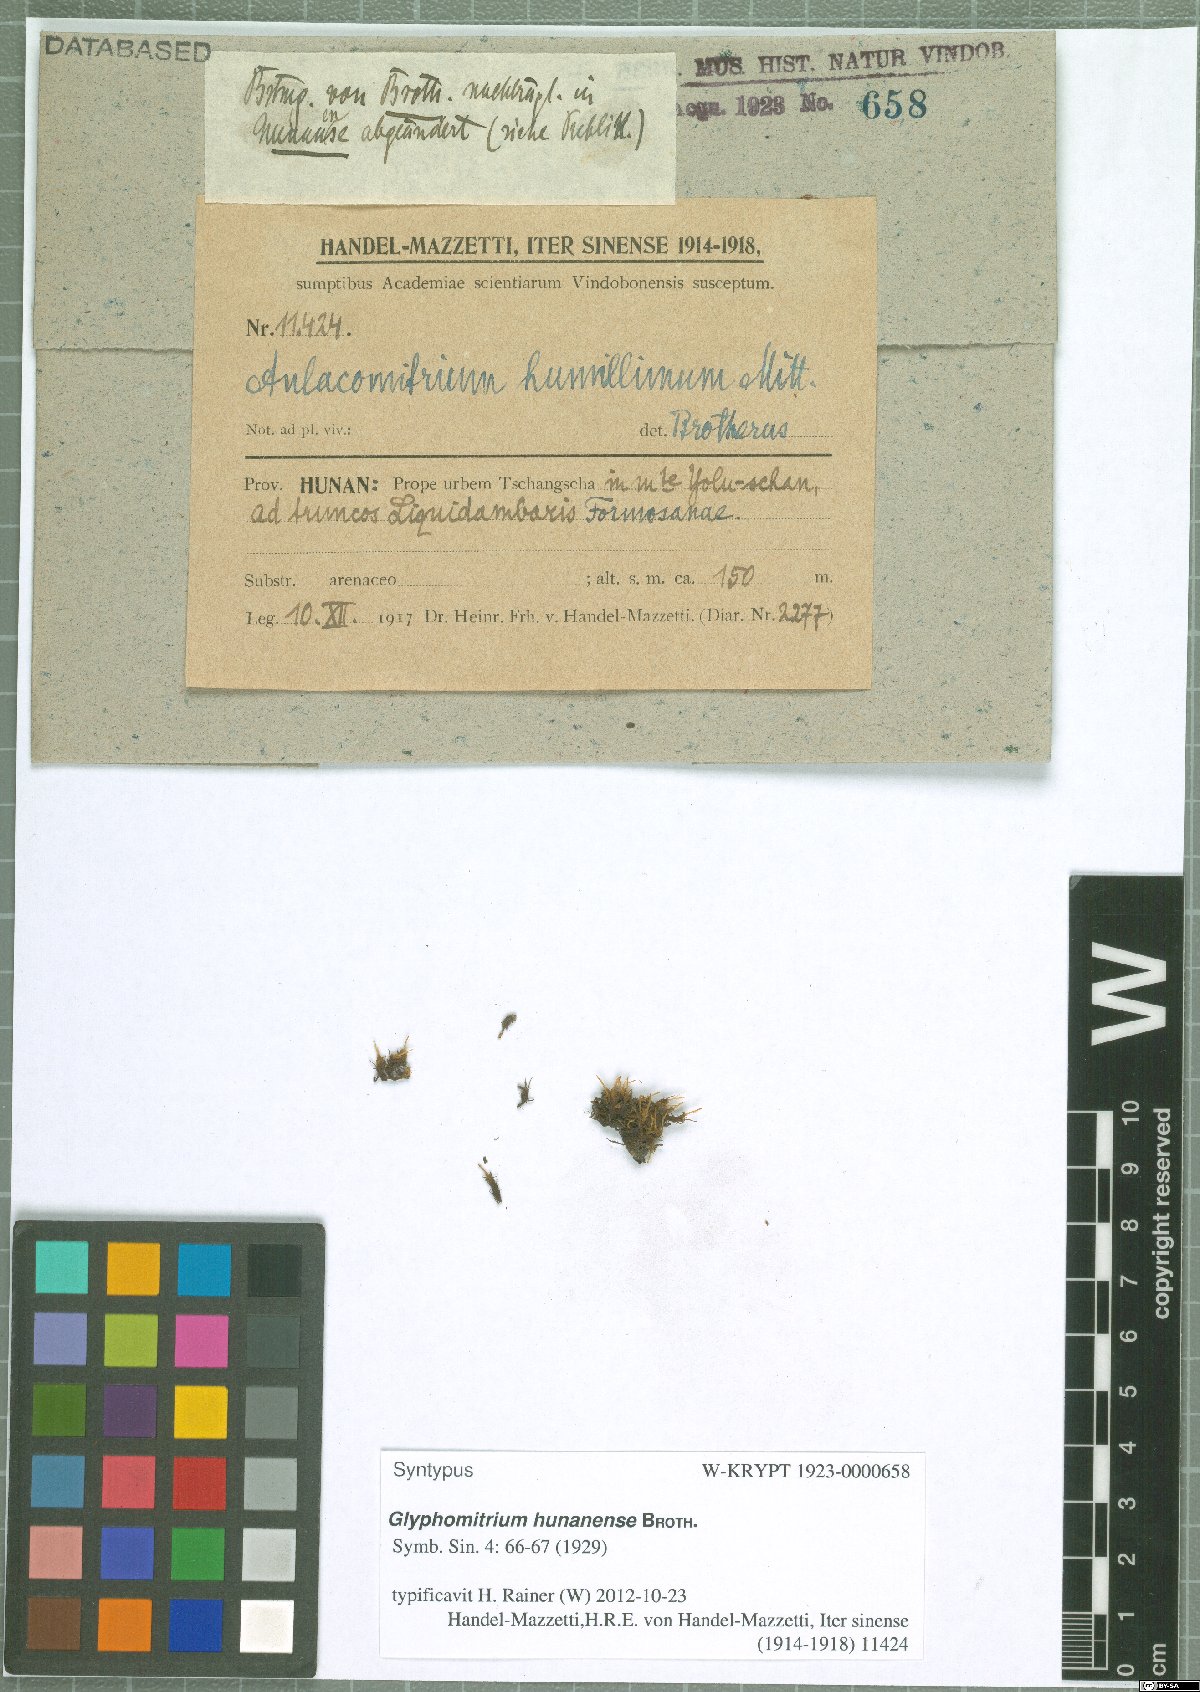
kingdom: Plantae
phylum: Bryophyta
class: Bryopsida
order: Dicranales
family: Rhabdoweisiaceae
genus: Glyphomitrium
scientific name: Glyphomitrium hunanense
